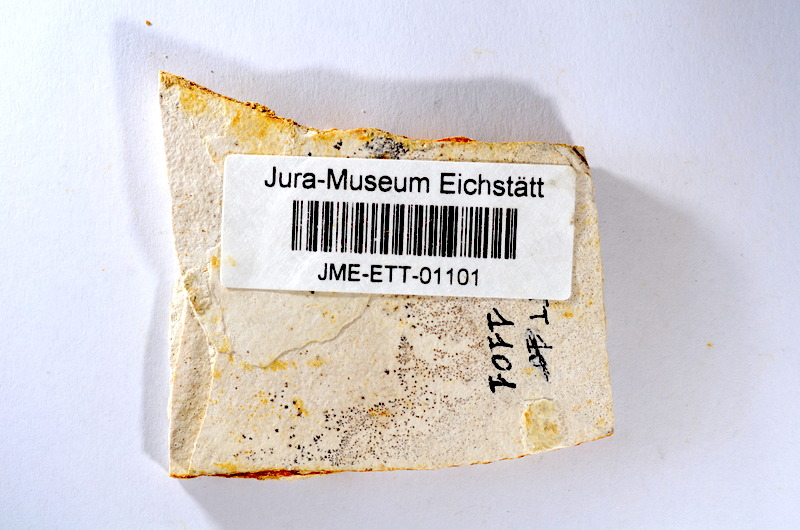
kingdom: Animalia
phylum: Chordata
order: Salmoniformes
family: Orthogonikleithridae
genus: Orthogonikleithrus
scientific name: Orthogonikleithrus hoelli
